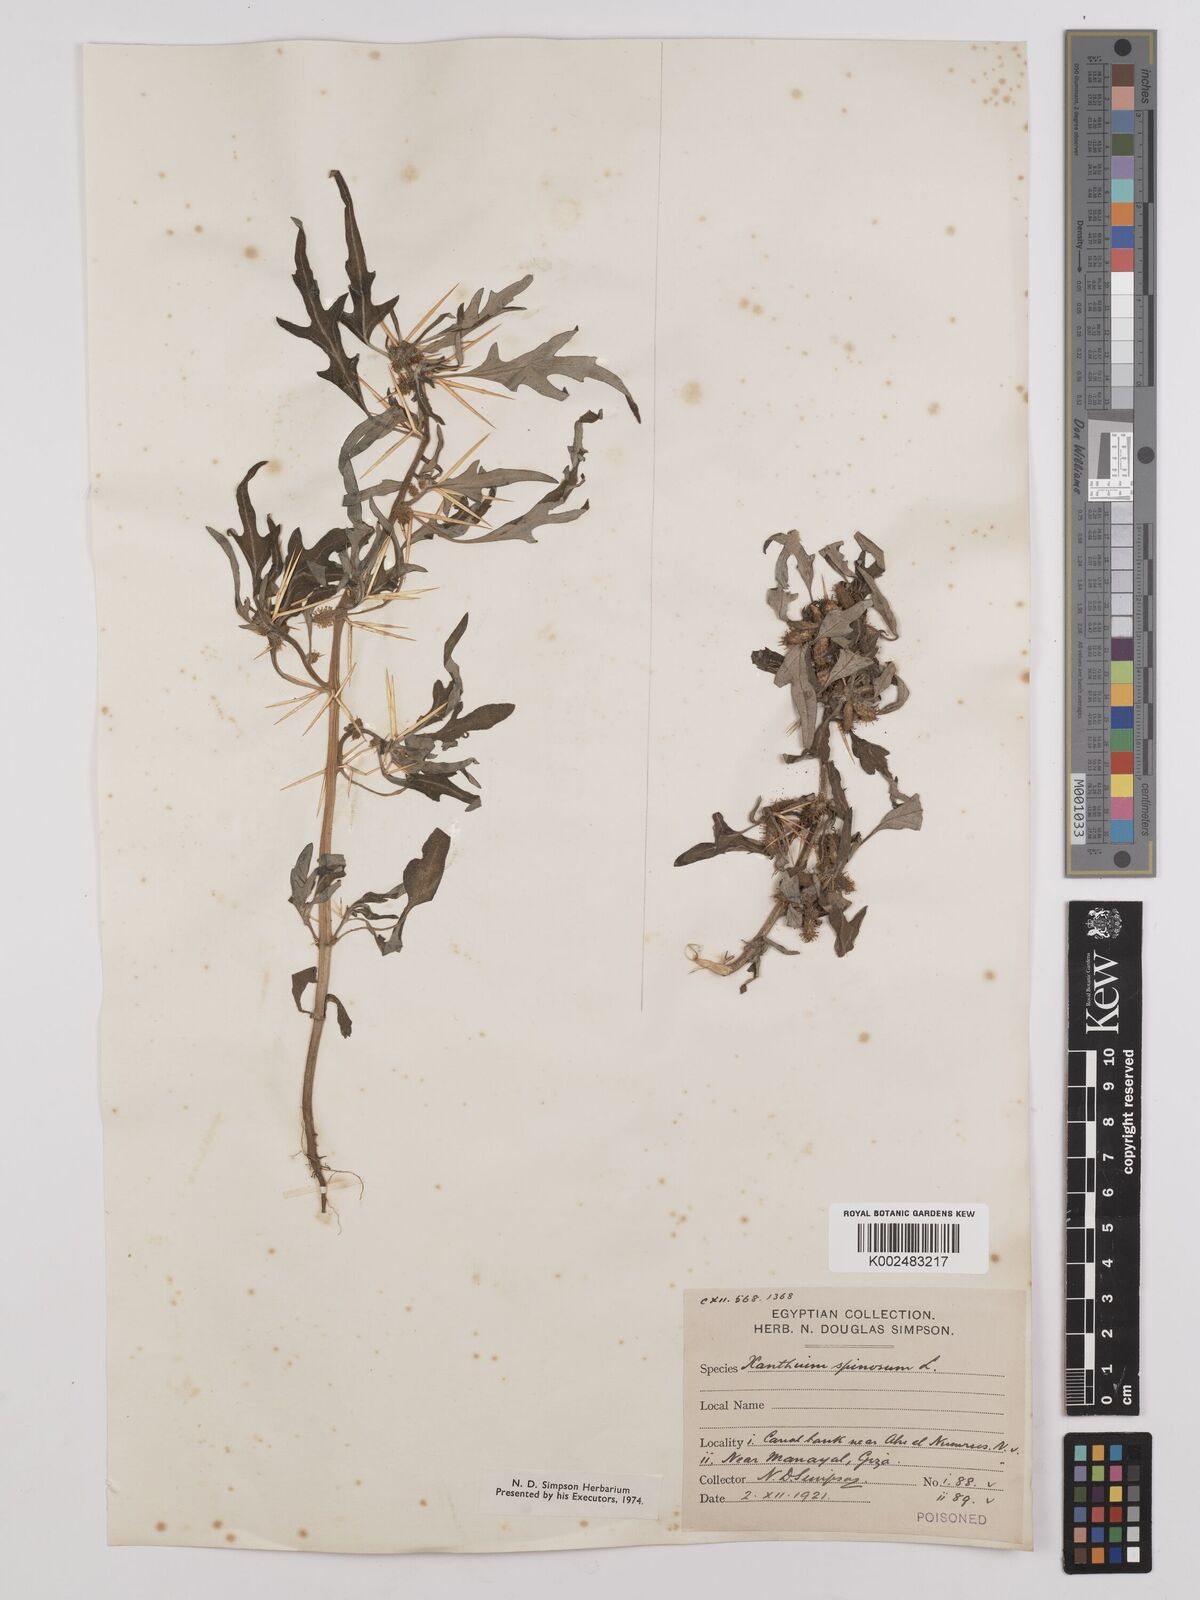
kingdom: Plantae
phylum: Tracheophyta
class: Magnoliopsida
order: Asterales
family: Asteraceae
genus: Xanthium
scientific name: Xanthium spinosum
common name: Spiny cocklebur
